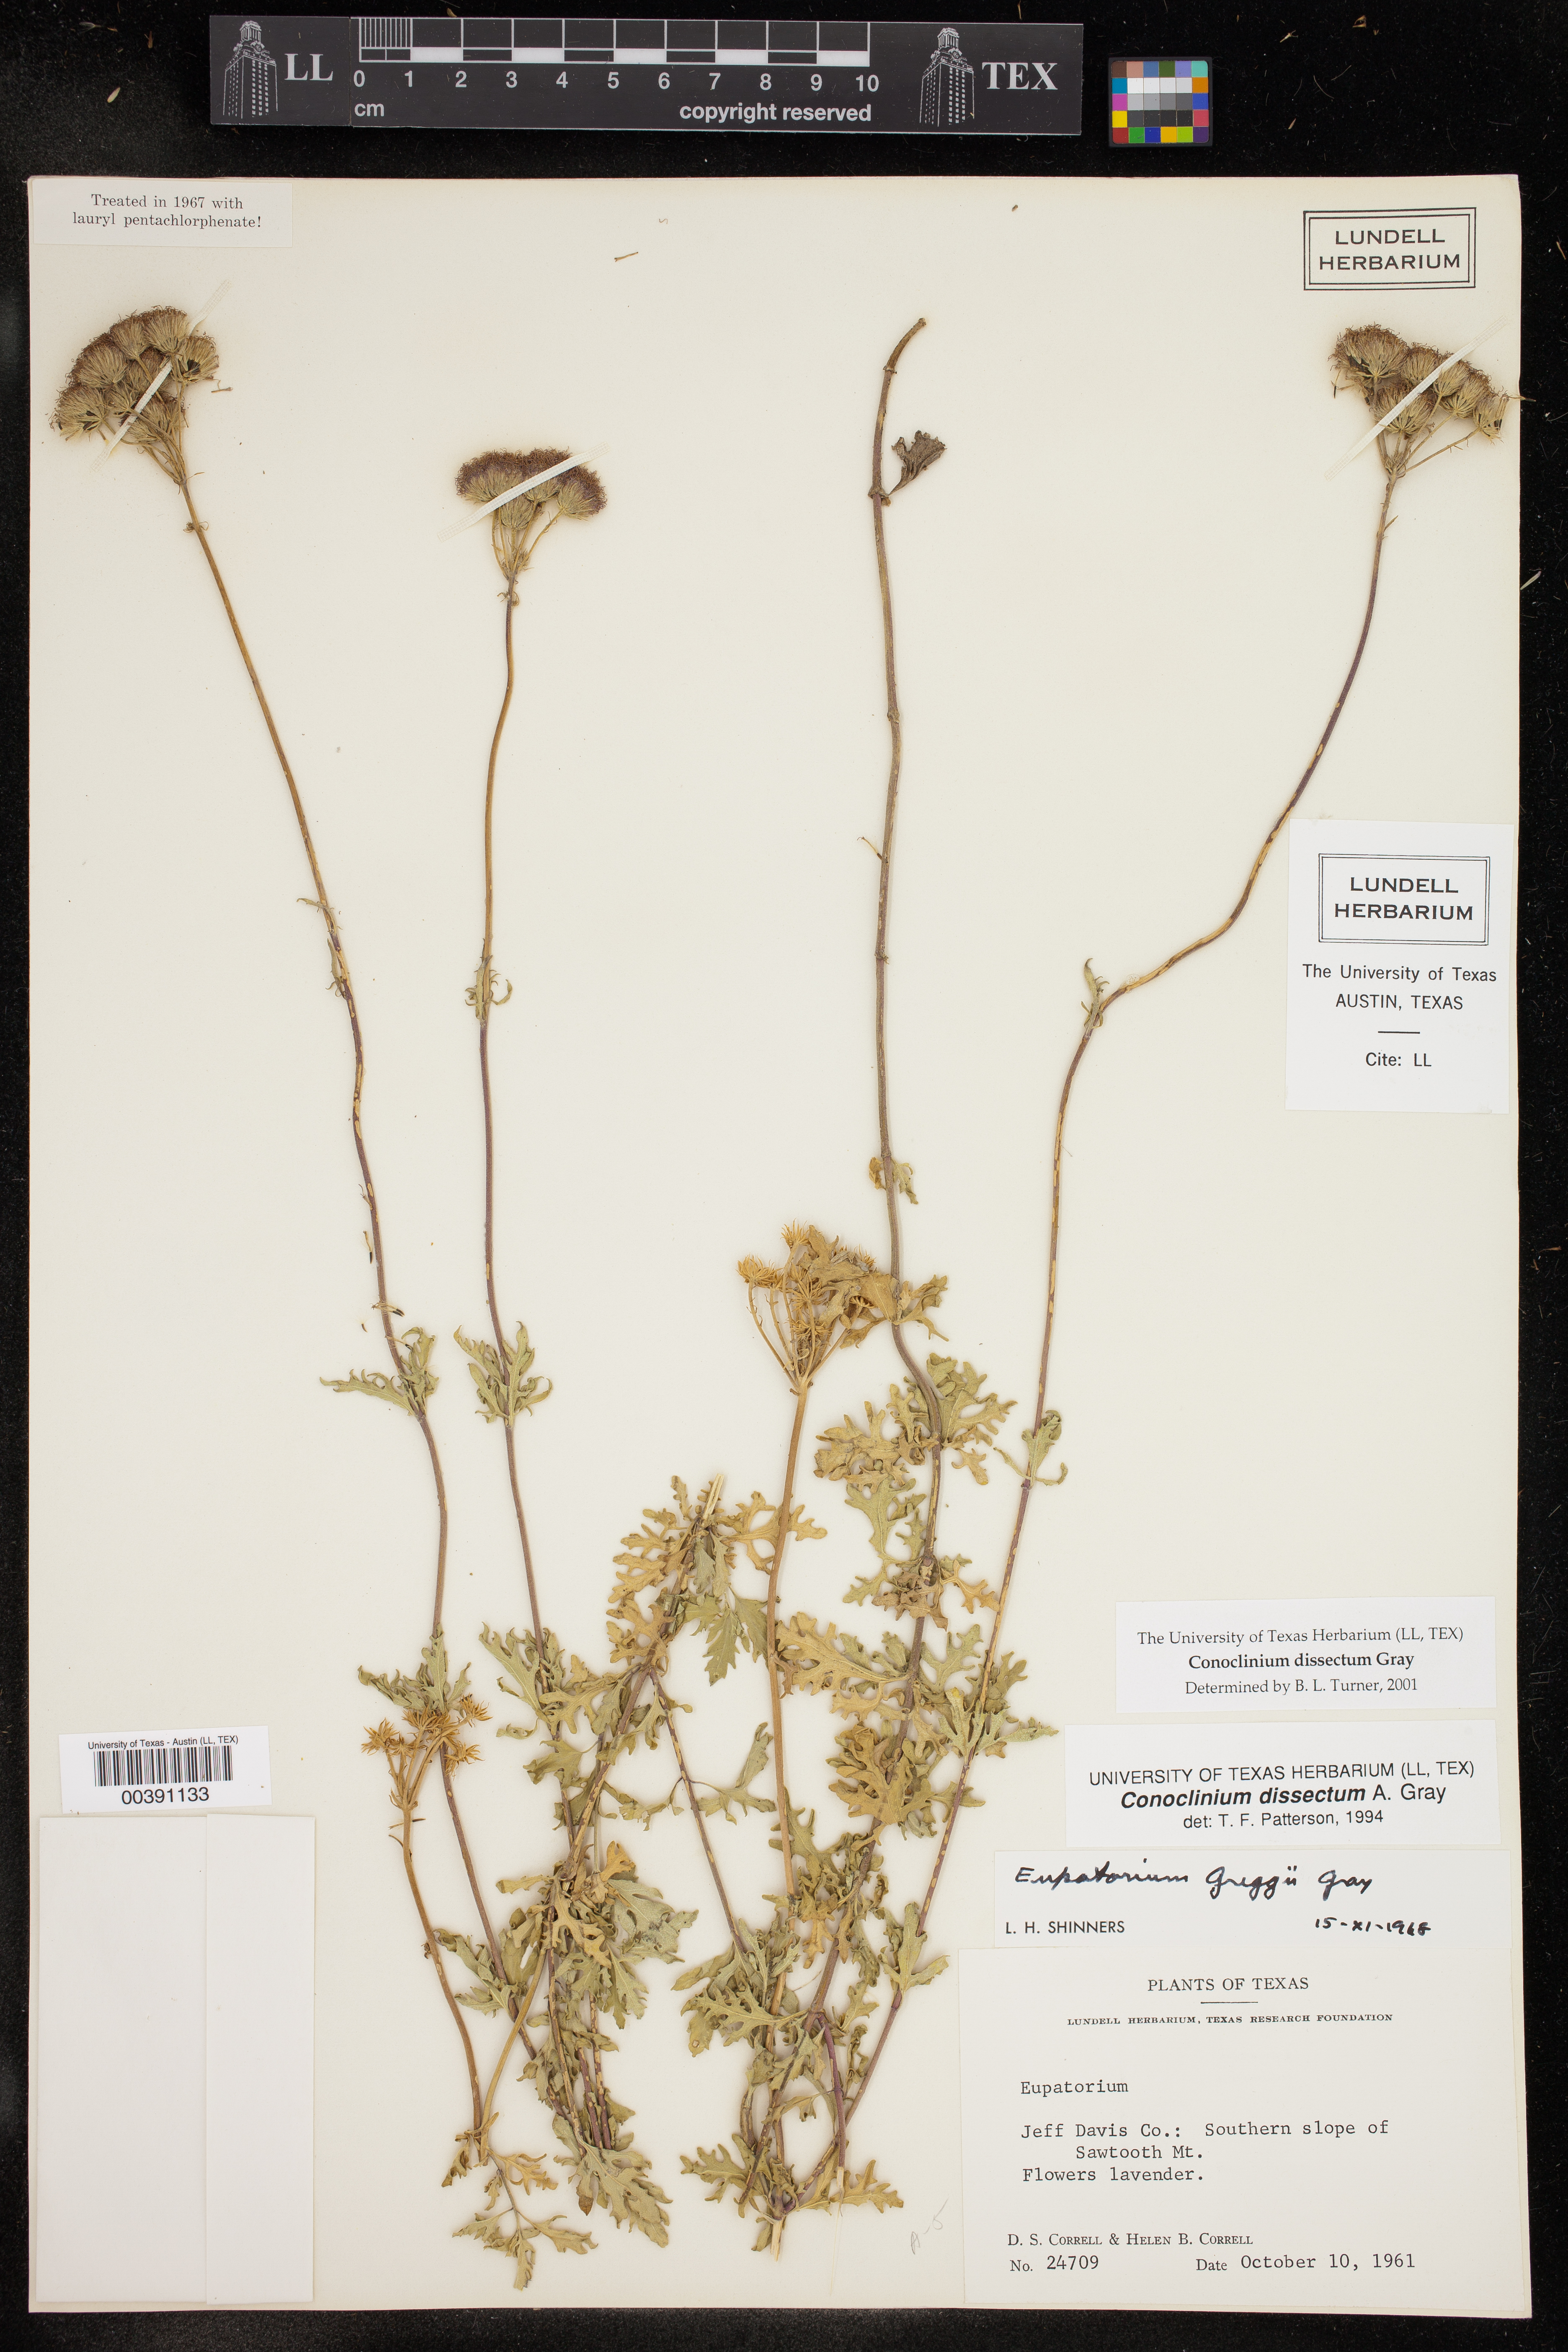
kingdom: Plantae
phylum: Tracheophyta
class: Magnoliopsida
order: Asterales
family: Asteraceae
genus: Conoclinium
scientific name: Conoclinium dissectum
